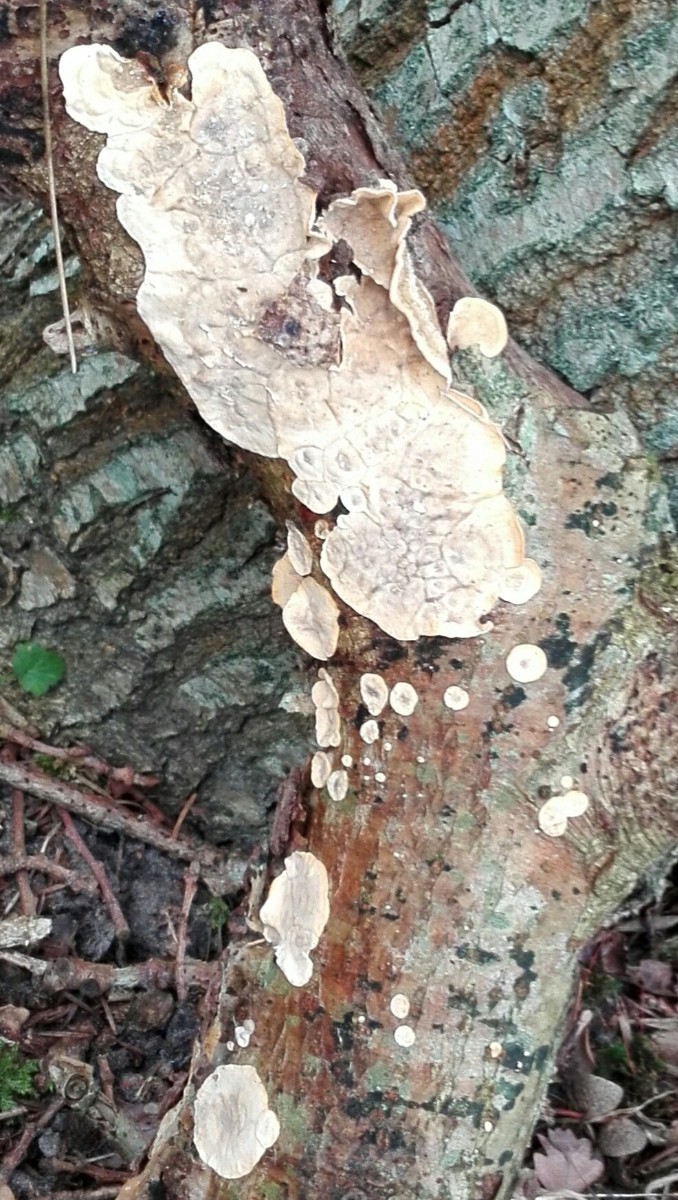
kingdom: Fungi
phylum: Basidiomycota
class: Agaricomycetes
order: Russulales
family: Stereaceae
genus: Stereum
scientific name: Stereum hirsutum
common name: håret lædersvamp
